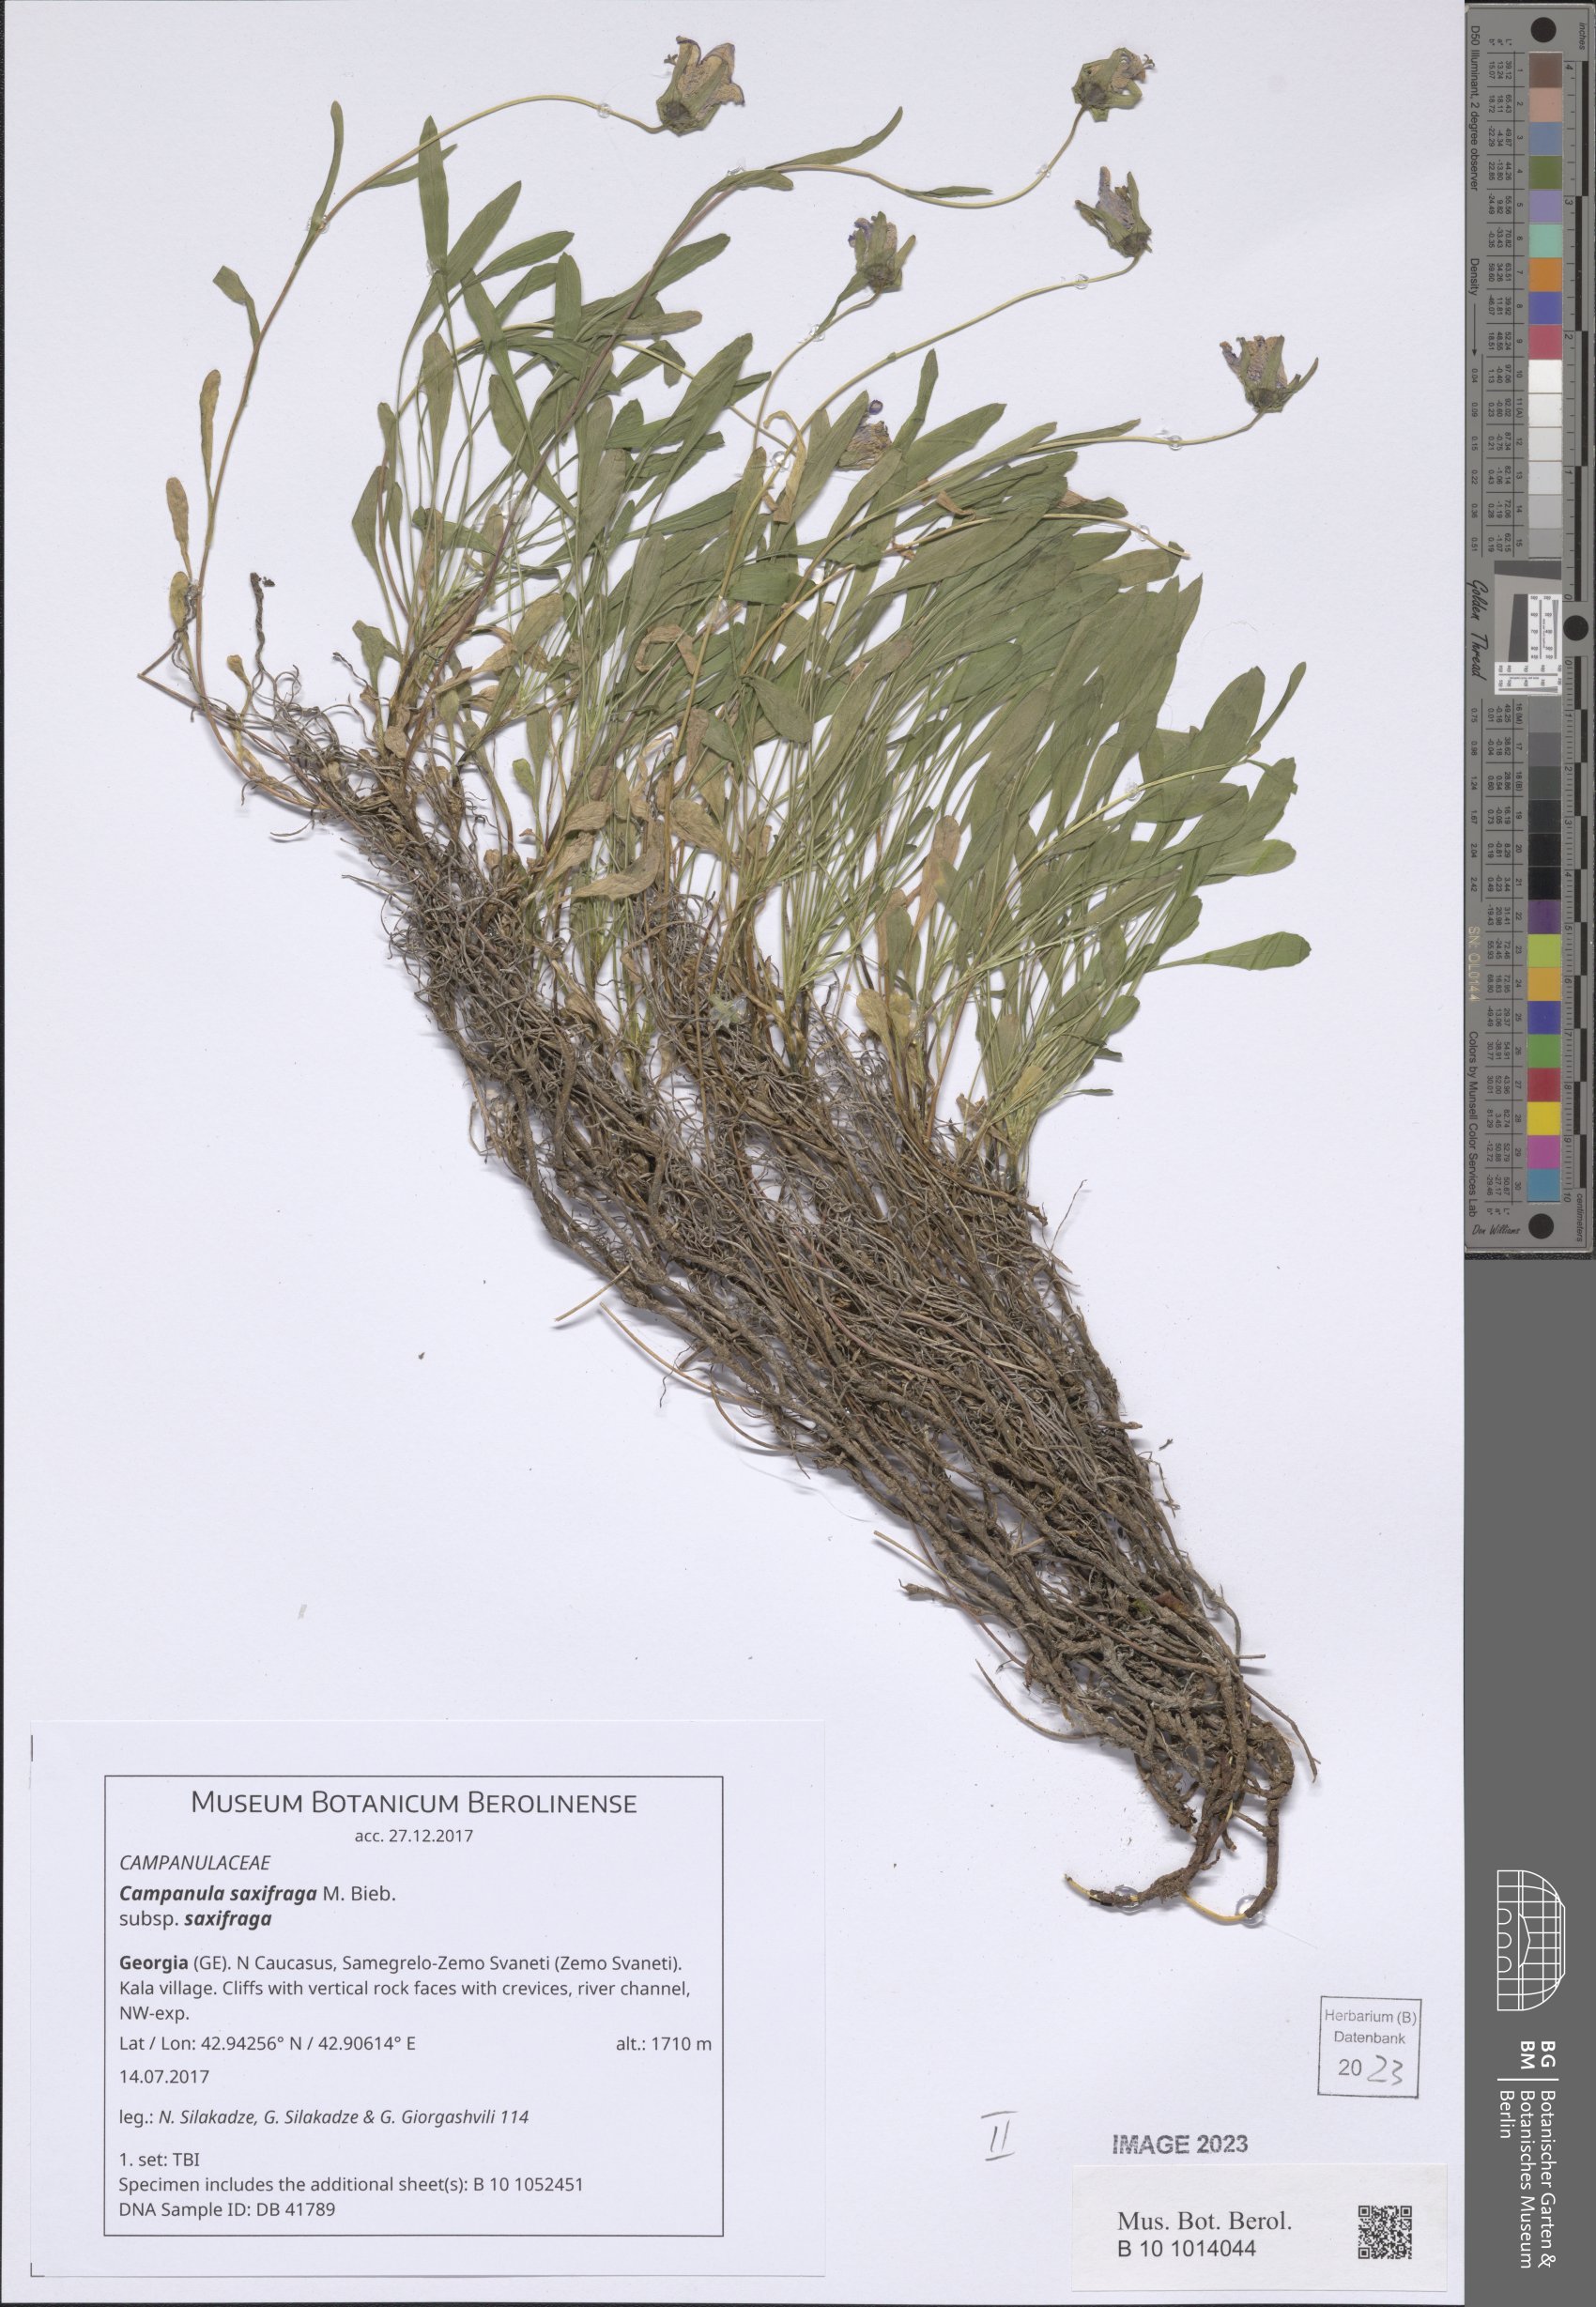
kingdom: Plantae
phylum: Tracheophyta
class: Magnoliopsida
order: Asterales
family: Campanulaceae
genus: Campanula
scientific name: Campanula saxifraga
